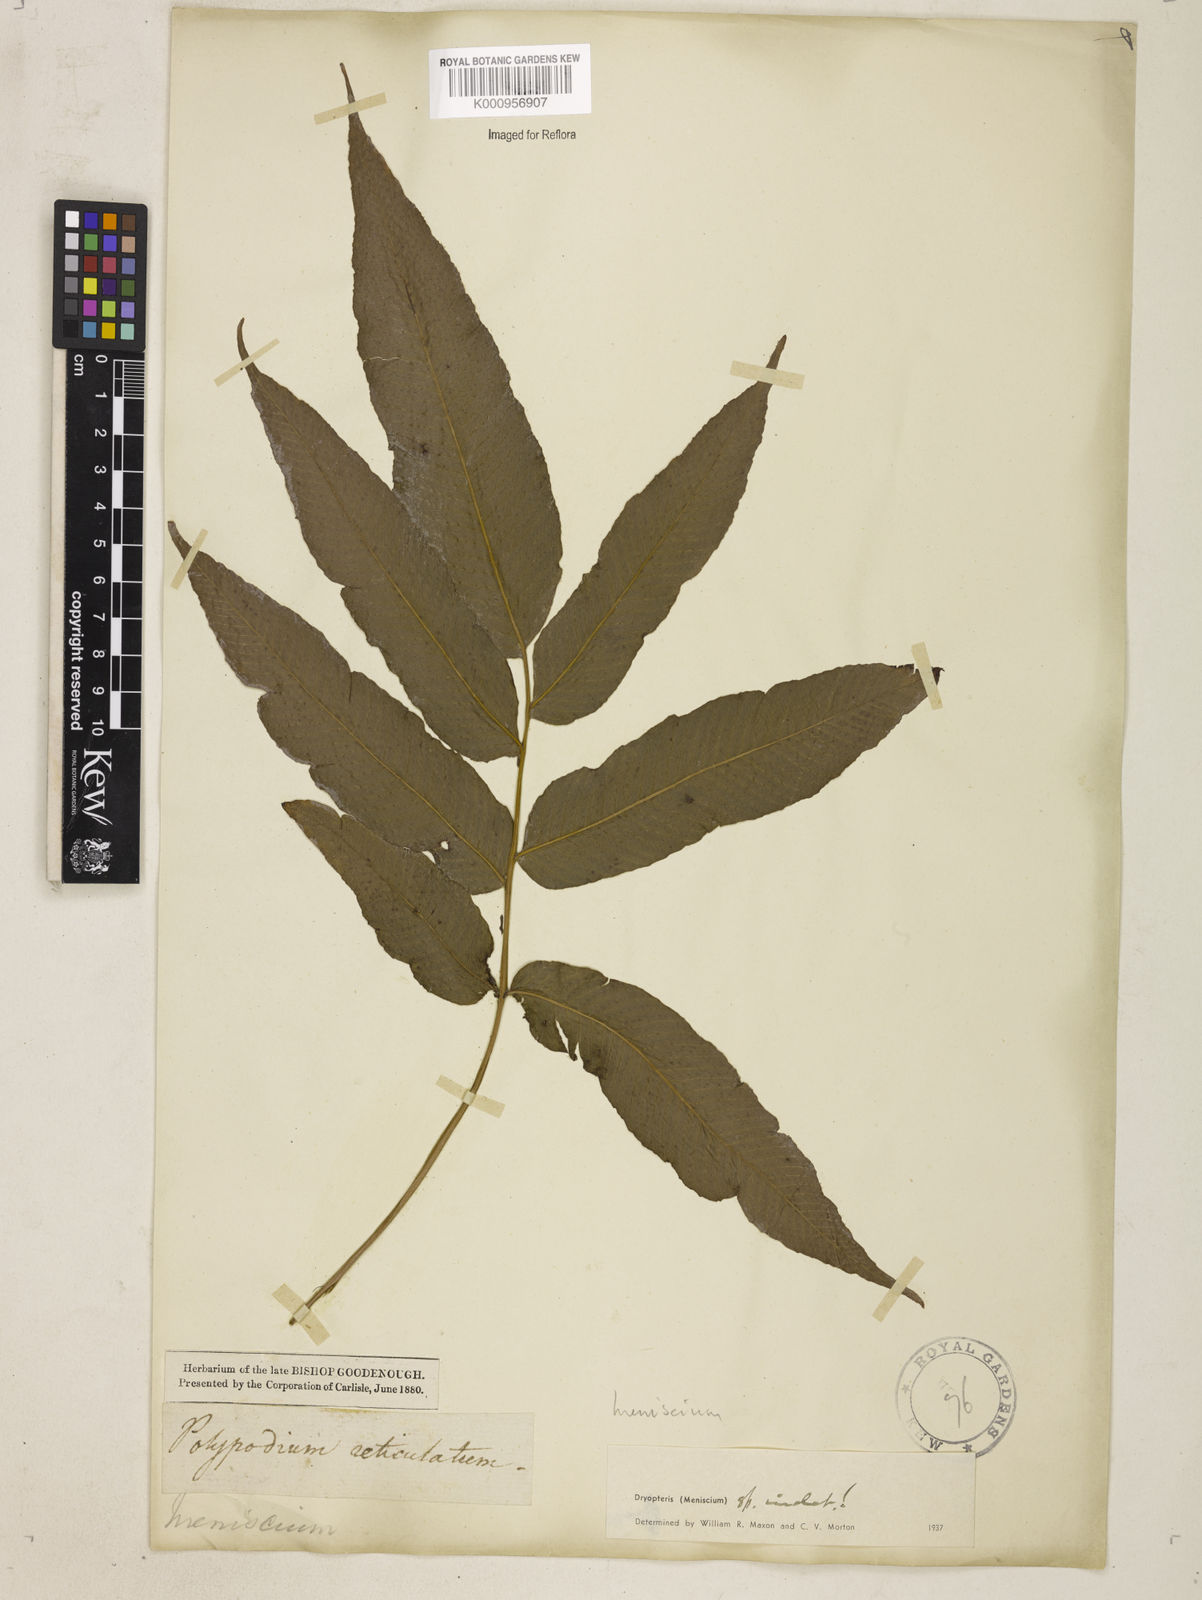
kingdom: Plantae
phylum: Tracheophyta
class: Polypodiopsida
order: Polypodiales
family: Thelypteridaceae
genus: Meniscium
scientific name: Meniscium
